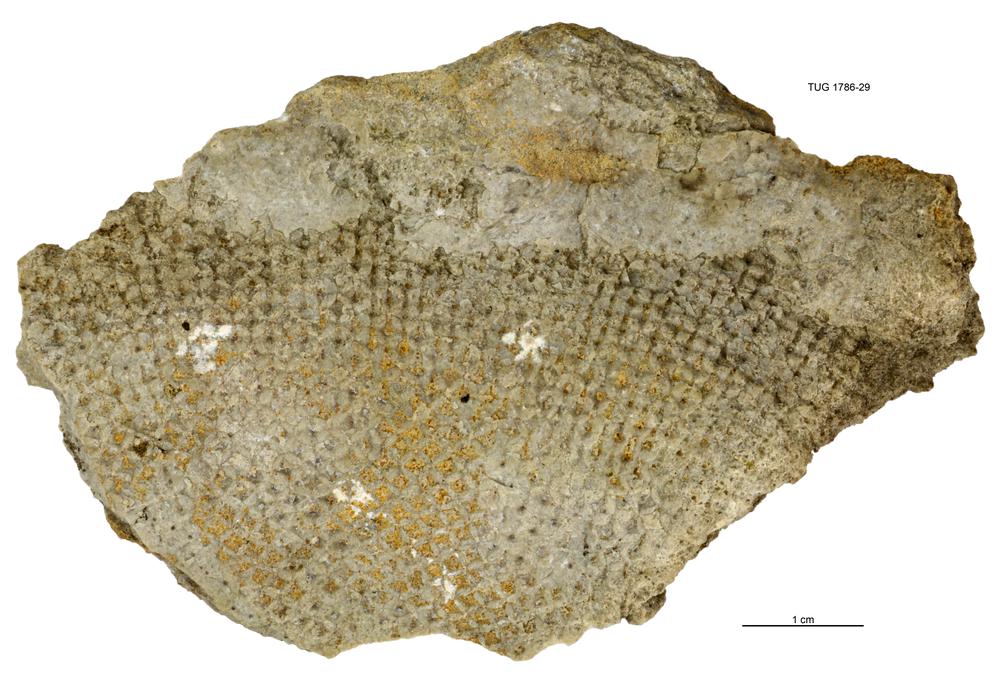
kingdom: Plantae
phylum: Chlorophyta
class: Chlorophyceae
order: Receptaculitales
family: Receptaculitaceae
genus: Receptaculites
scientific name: Receptaculites
